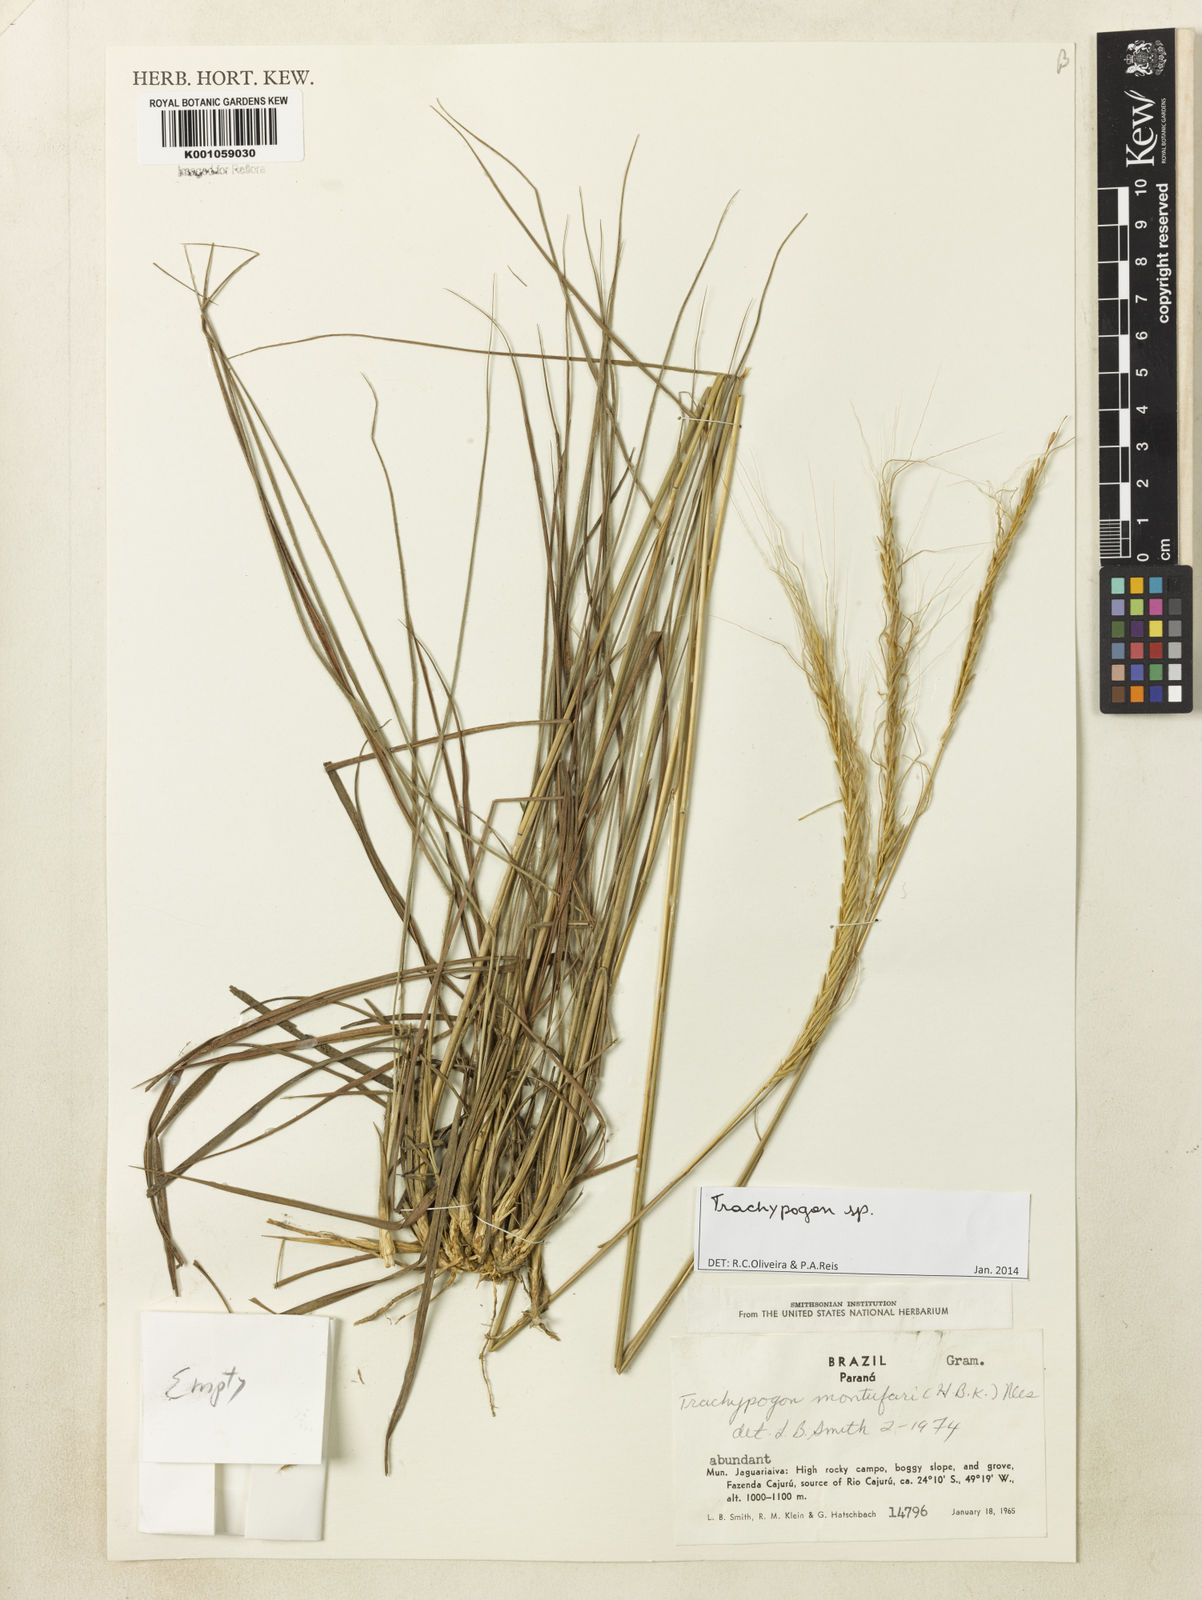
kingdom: Plantae
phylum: Tracheophyta
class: Liliopsida
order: Poales
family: Poaceae
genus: Trachypogon
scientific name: Trachypogon
